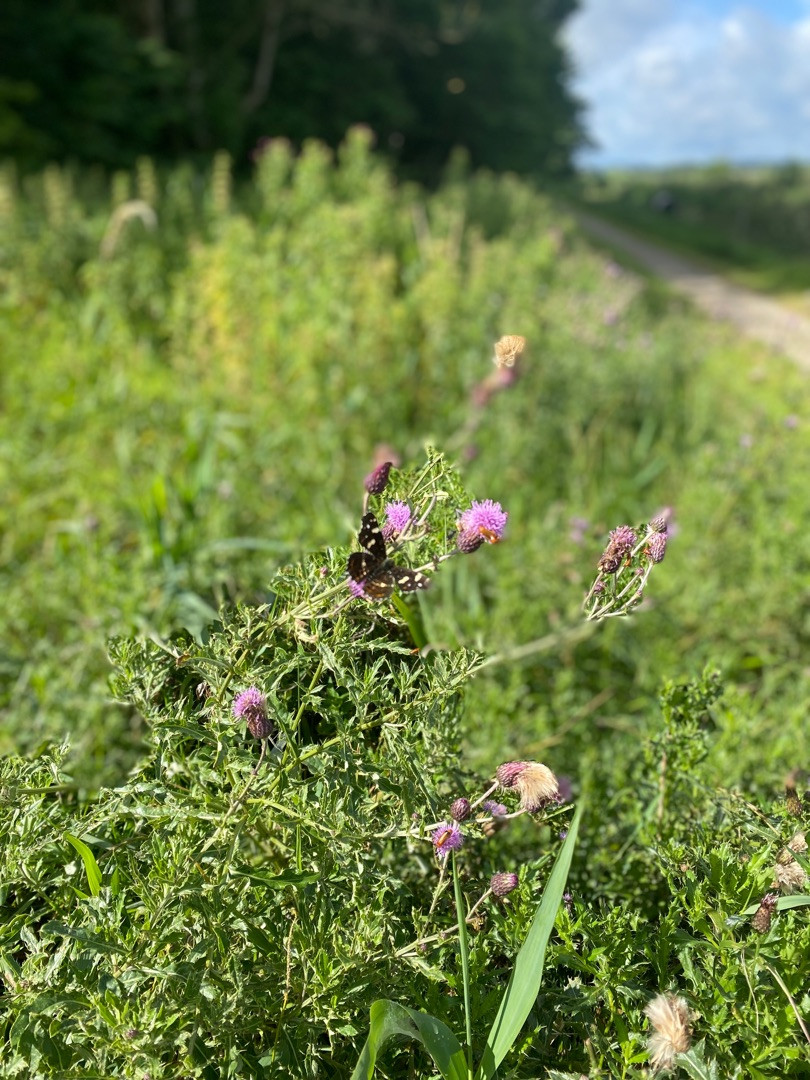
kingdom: Animalia
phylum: Arthropoda
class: Insecta
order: Lepidoptera
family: Nymphalidae
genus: Araschnia
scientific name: Araschnia levana
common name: Nældesommerfugl
